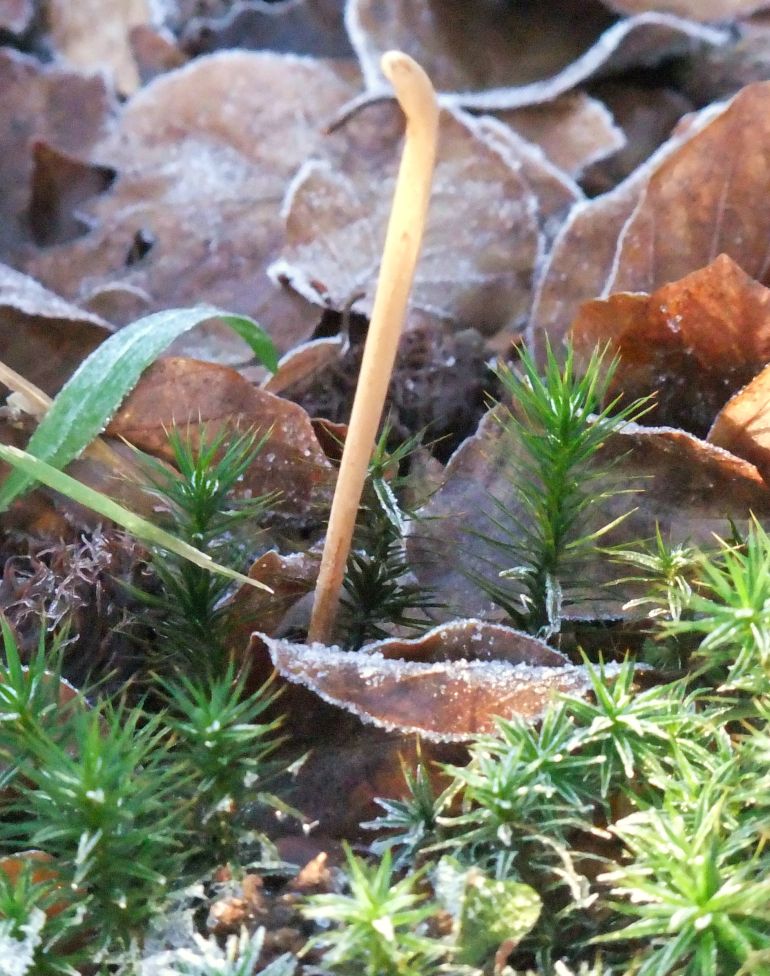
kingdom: Fungi
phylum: Basidiomycota
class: Agaricomycetes
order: Agaricales
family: Typhulaceae
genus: Typhula
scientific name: Typhula fistulosa
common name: pibet rørkølle
